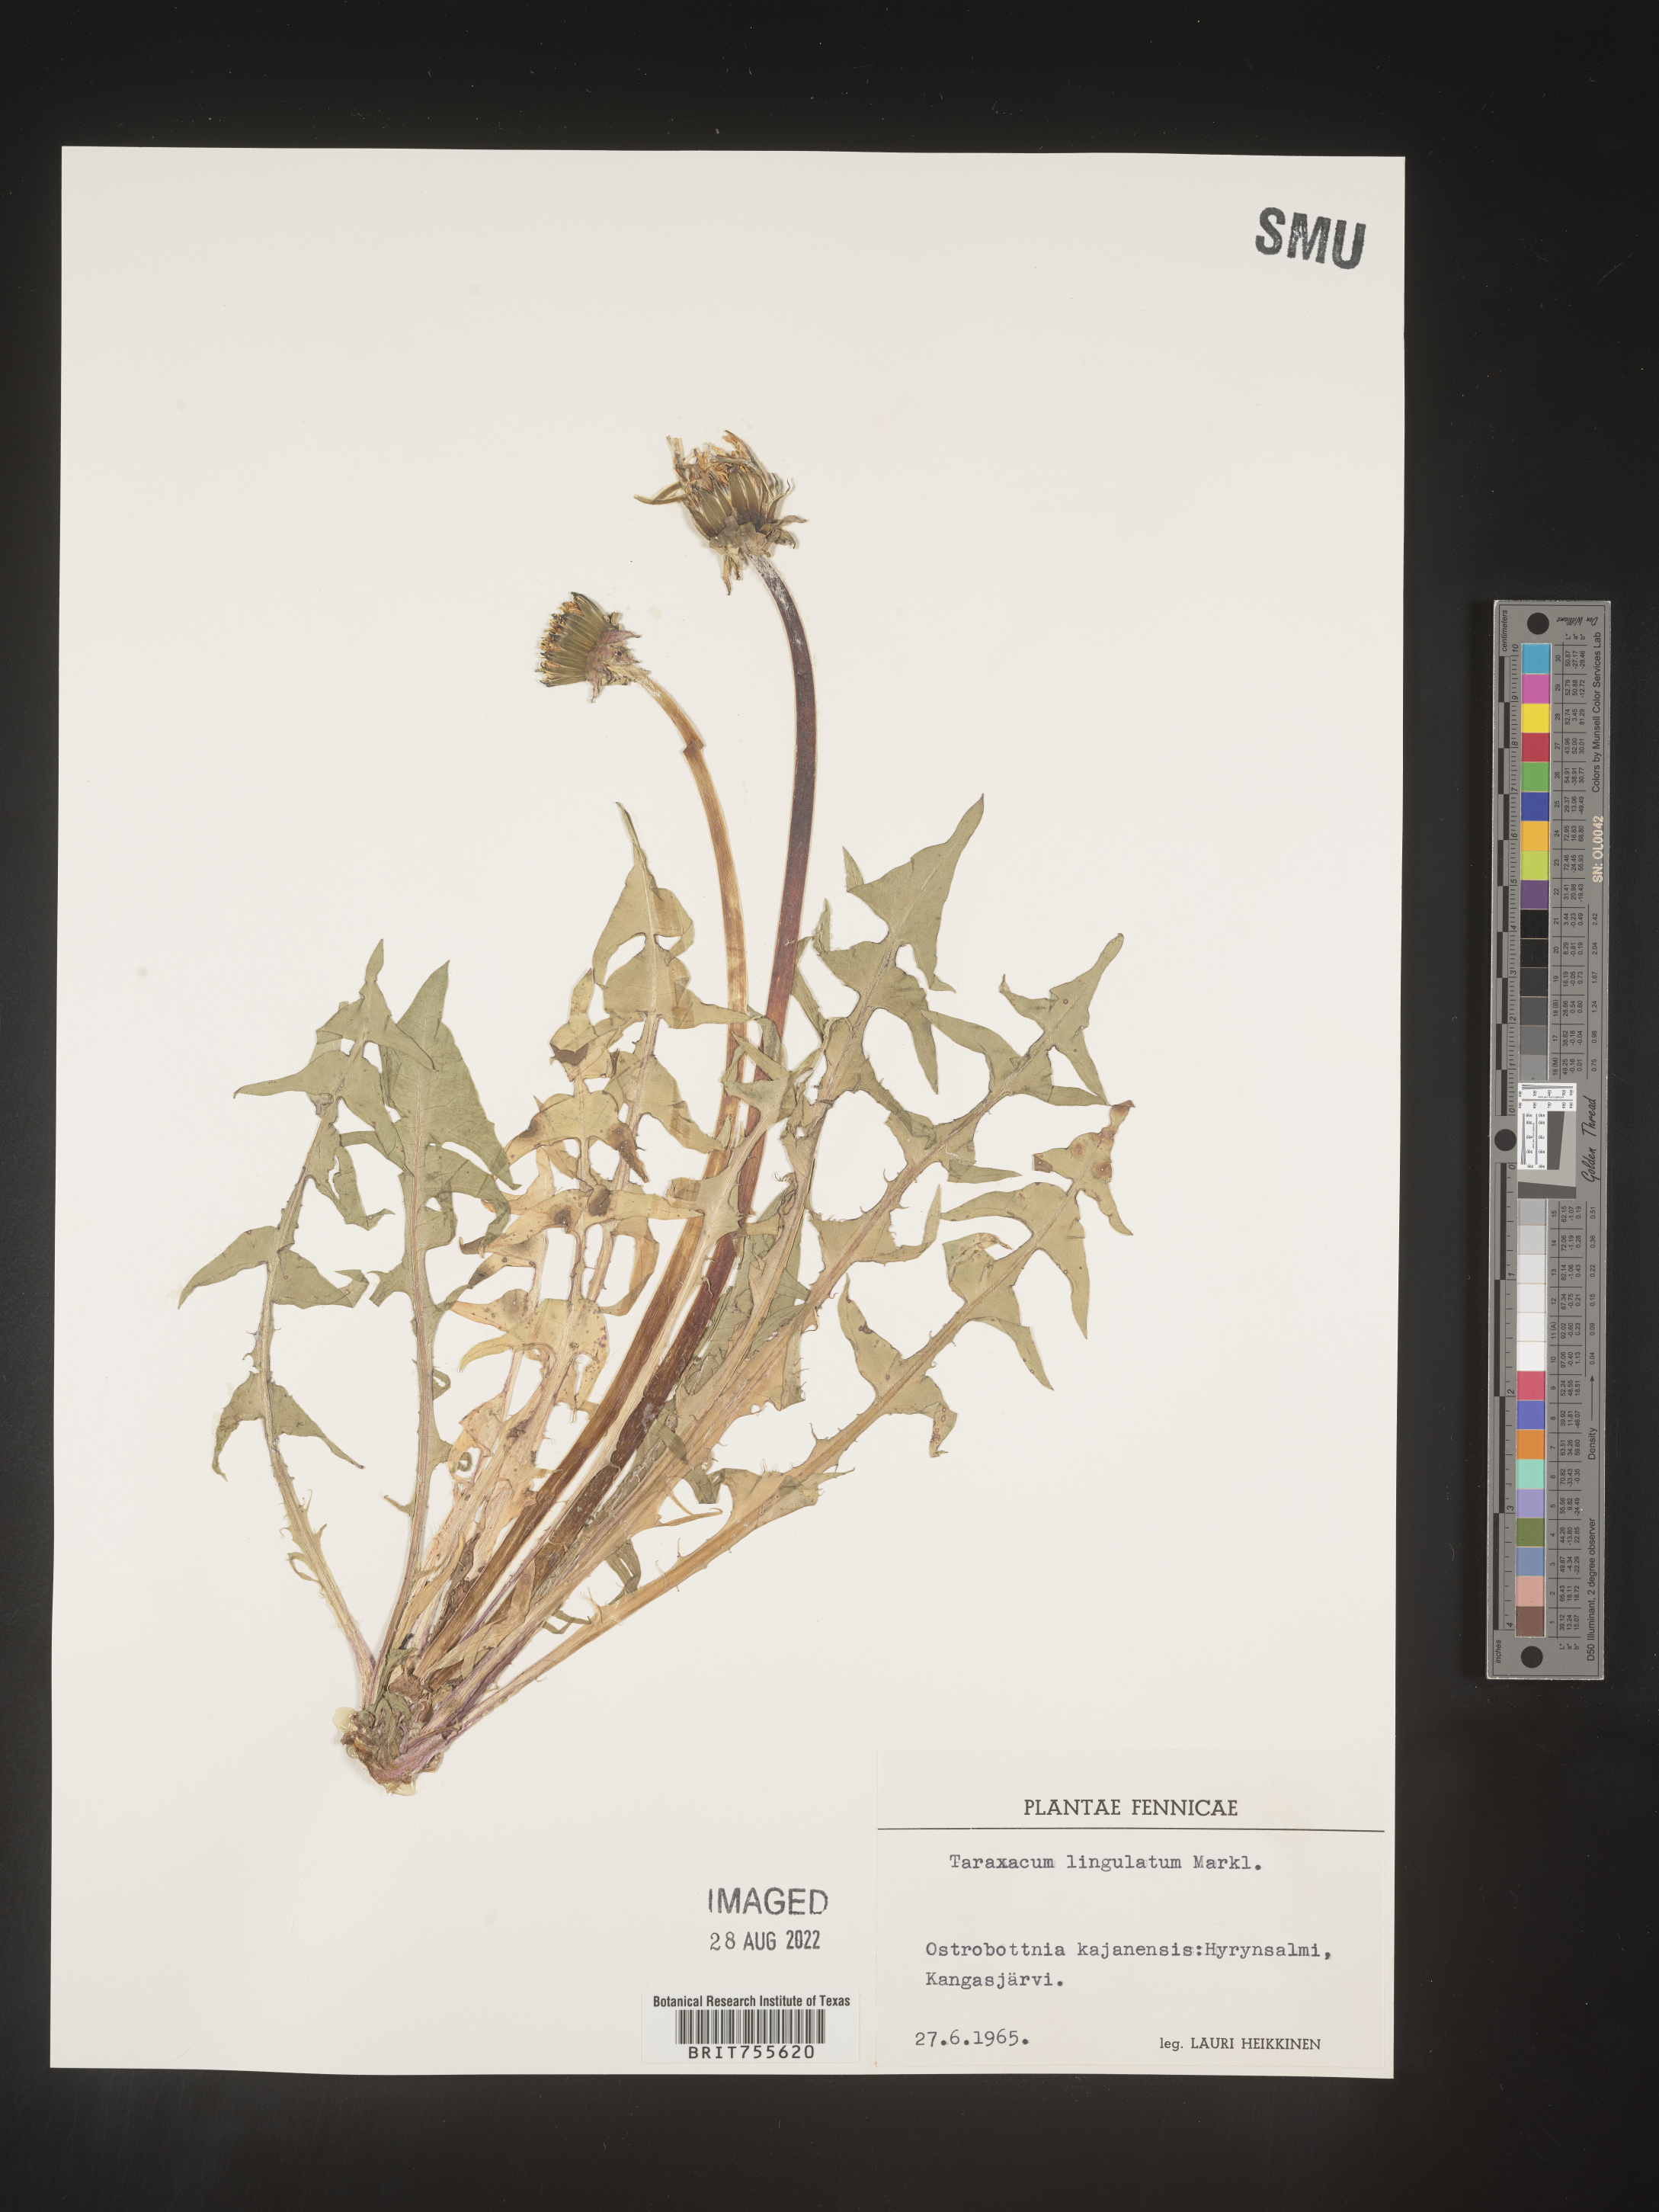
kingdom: Plantae
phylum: Tracheophyta
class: Magnoliopsida
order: Asterales
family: Asteraceae
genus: Taraxacum
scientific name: Taraxacum
